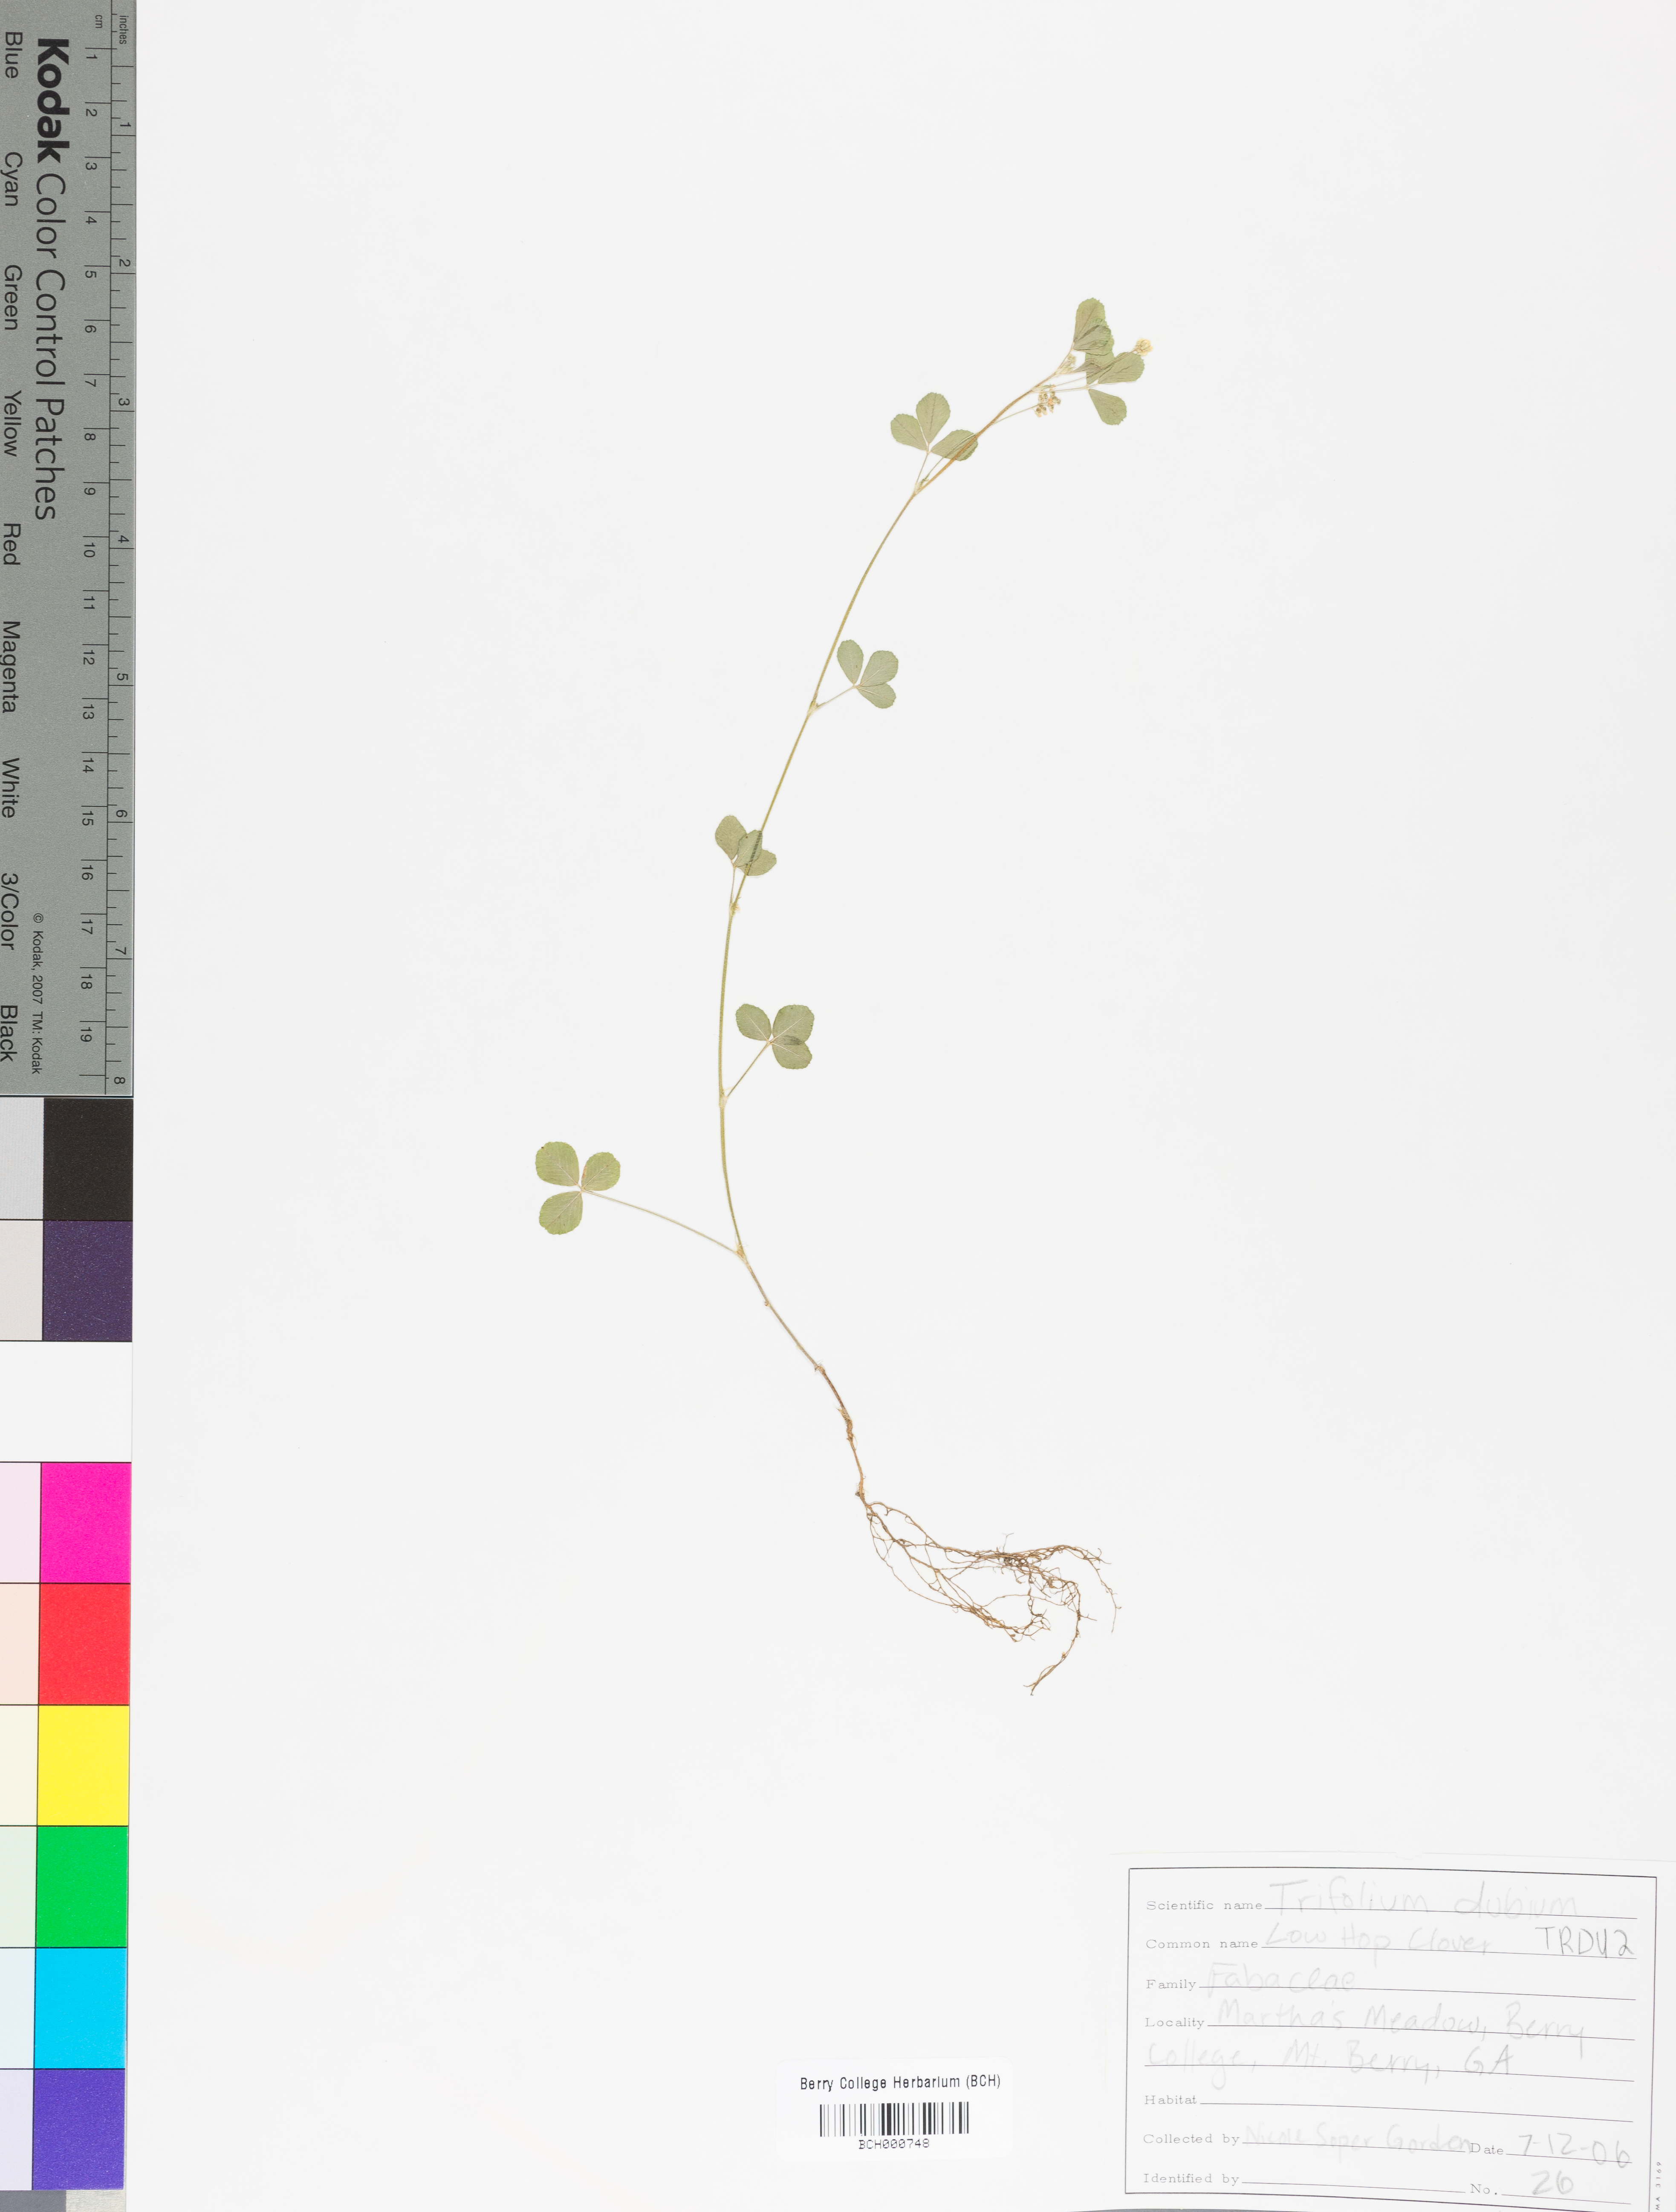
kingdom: Plantae
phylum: Tracheophyta
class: Magnoliopsida
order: Fabales
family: Fabaceae
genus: Trifolium
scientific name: Trifolium dubium
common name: Suckling clover
